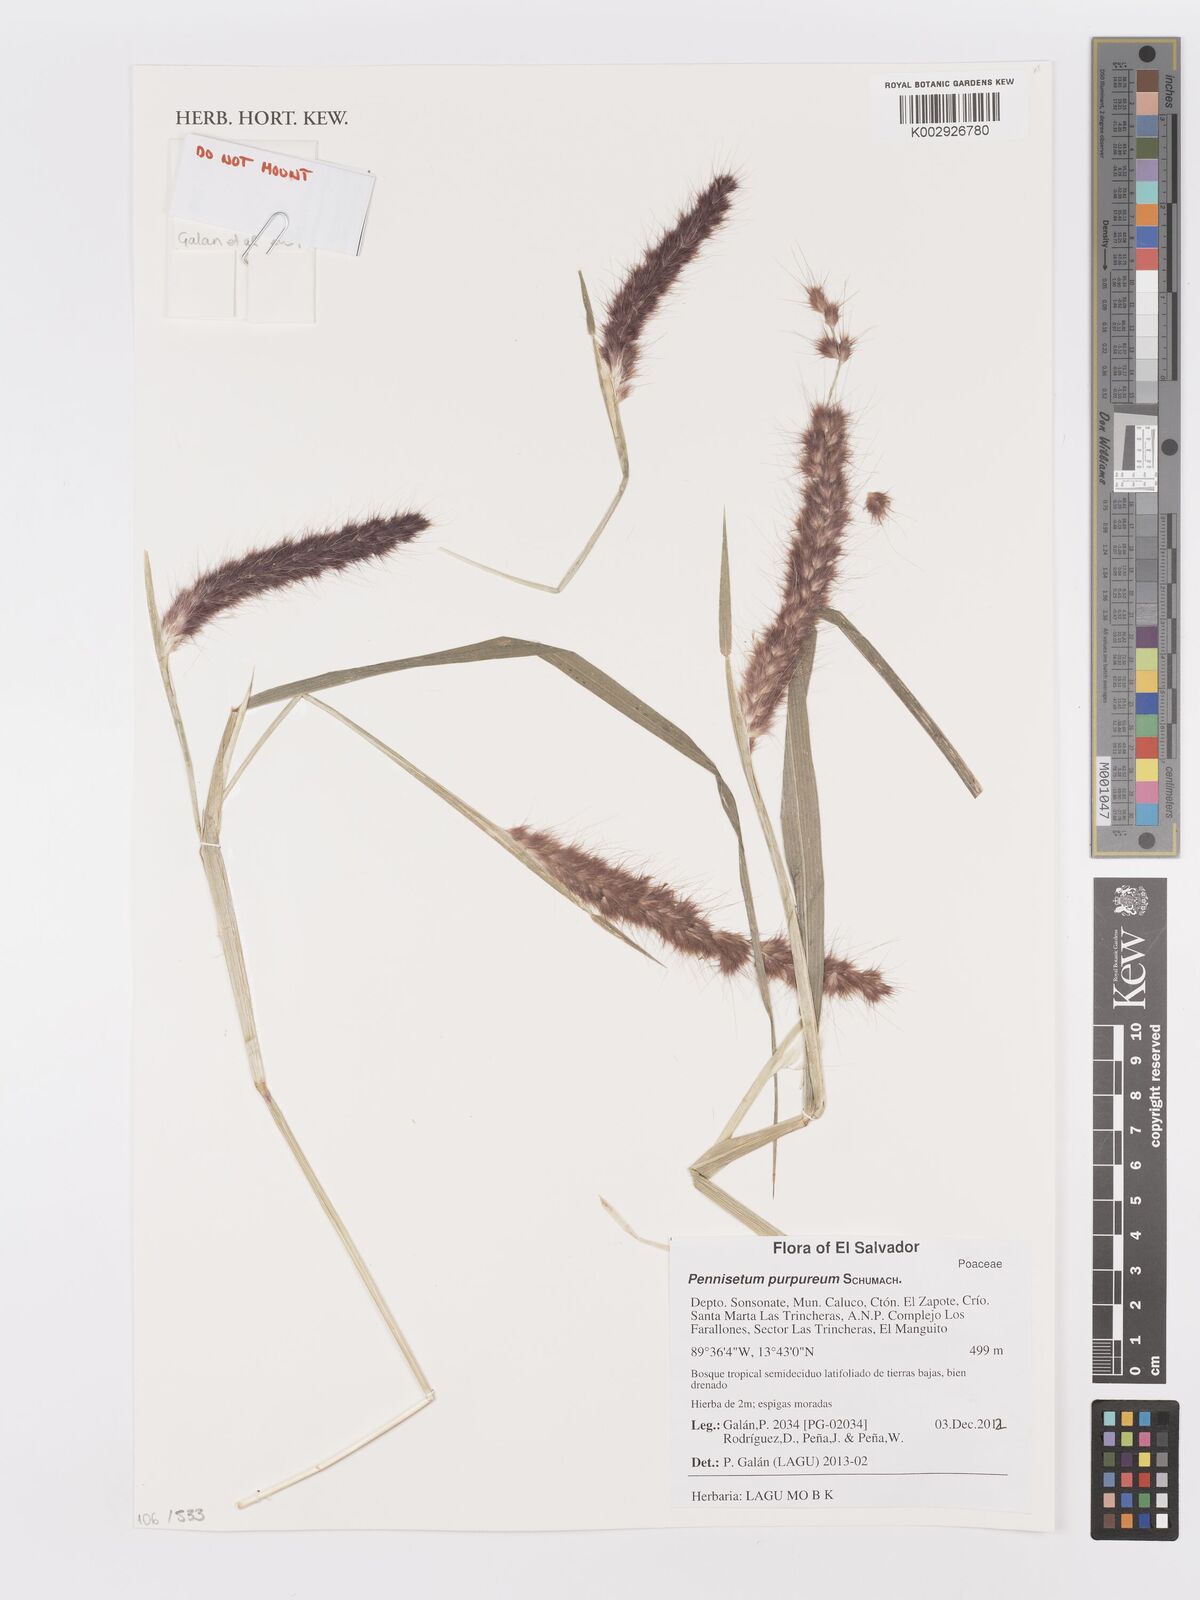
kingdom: Plantae
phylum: Tracheophyta
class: Liliopsida
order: Poales
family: Poaceae
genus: Cenchrus
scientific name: Cenchrus purpureus
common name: Elephant grass
